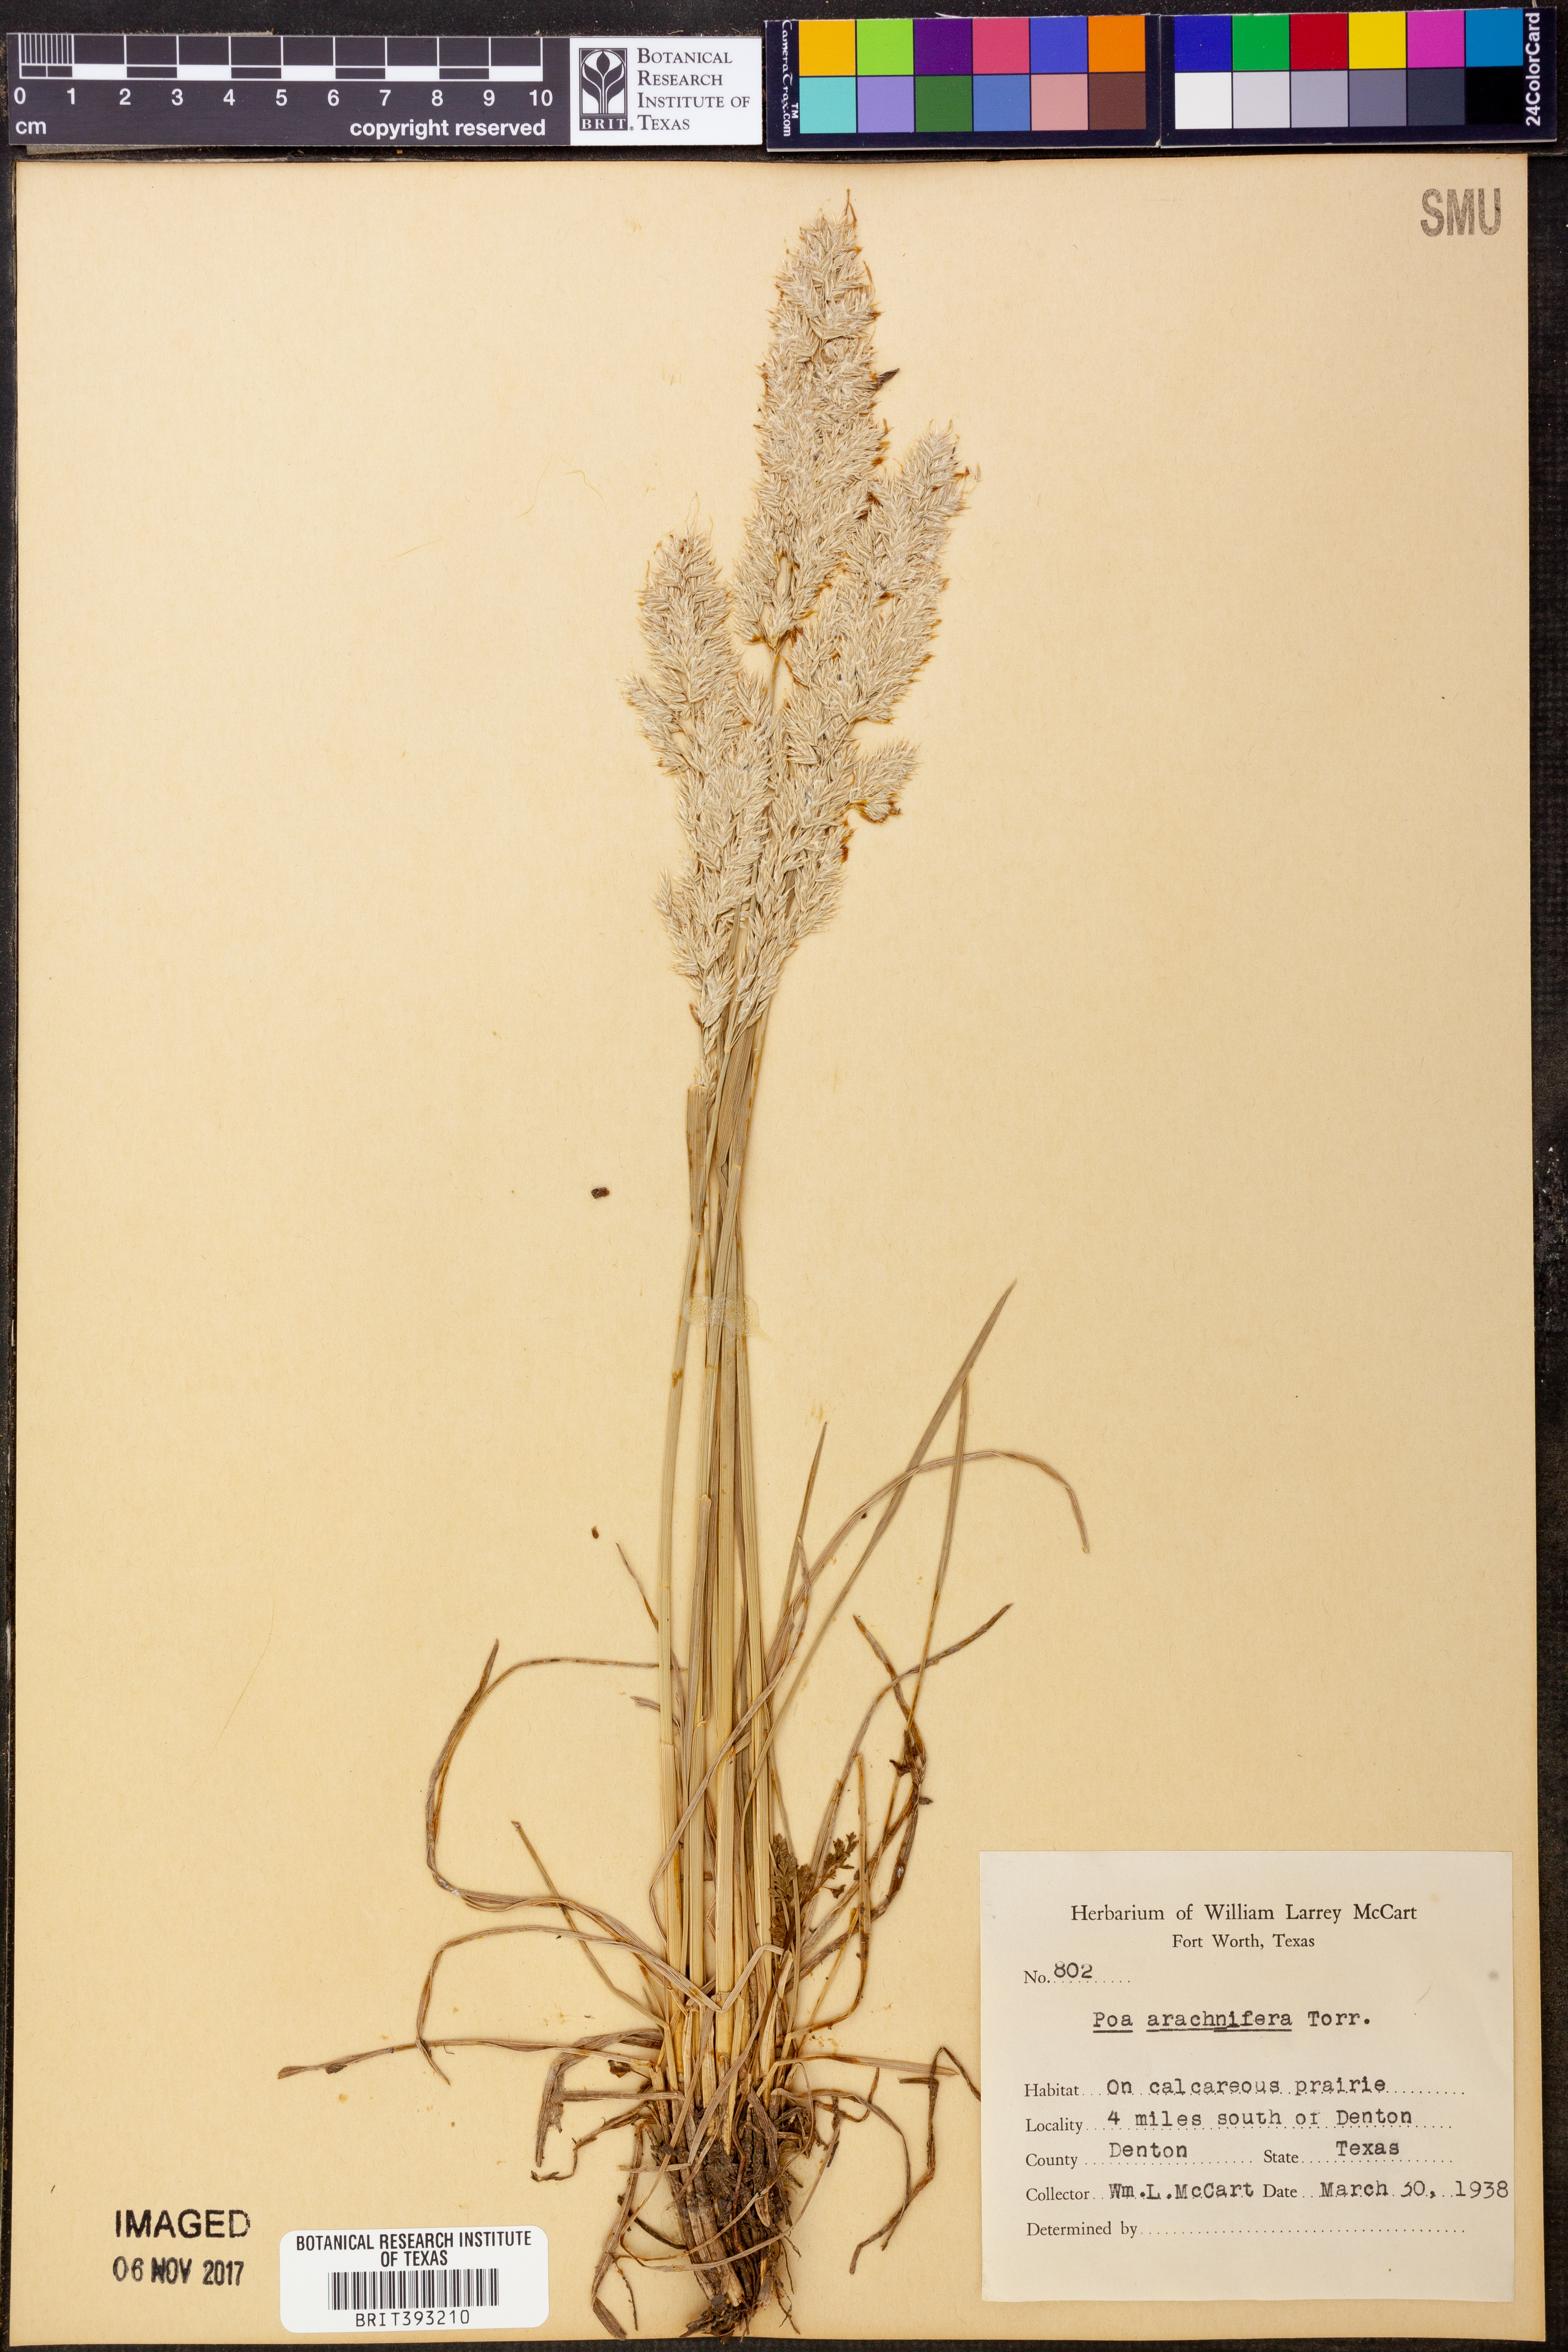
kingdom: Plantae
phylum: Tracheophyta
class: Liliopsida
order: Poales
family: Poaceae
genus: Poa
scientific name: Poa arachnifera
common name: Texas bluegrass
